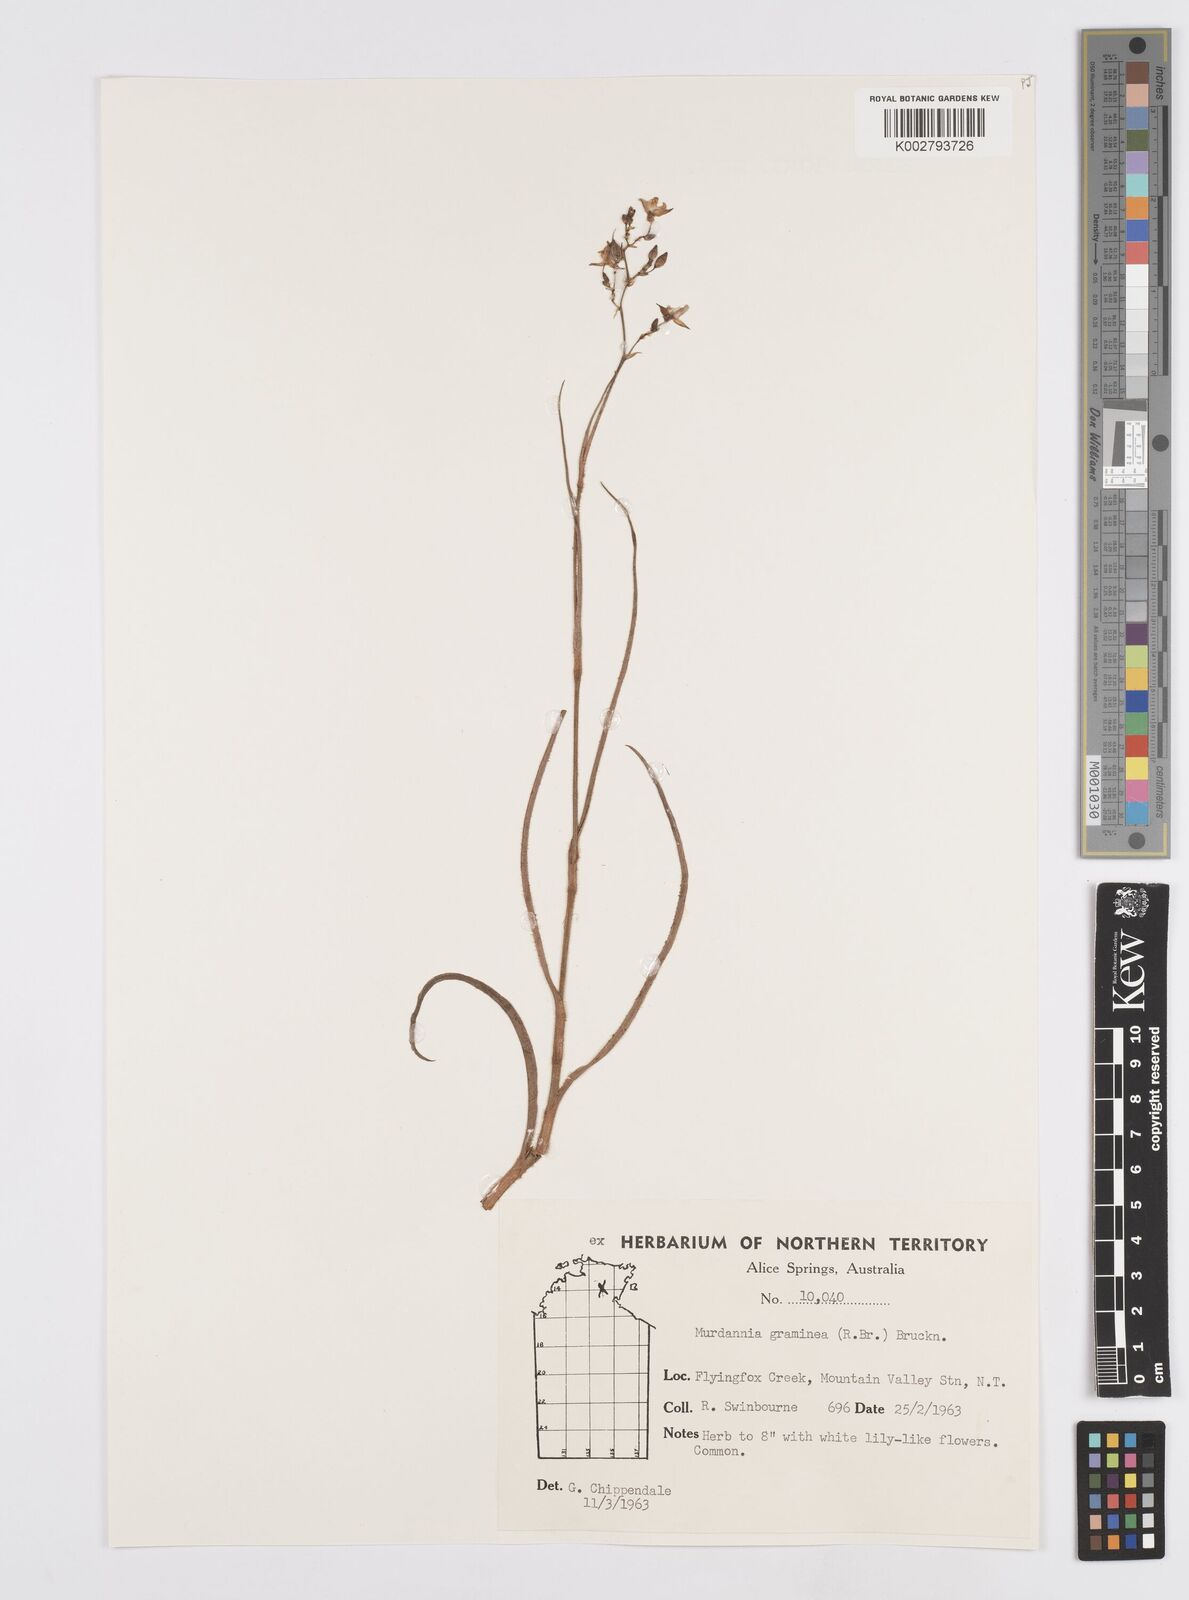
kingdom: Plantae
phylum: Tracheophyta
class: Liliopsida
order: Commelinales
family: Commelinaceae
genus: Murdannia
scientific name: Murdannia graminea
